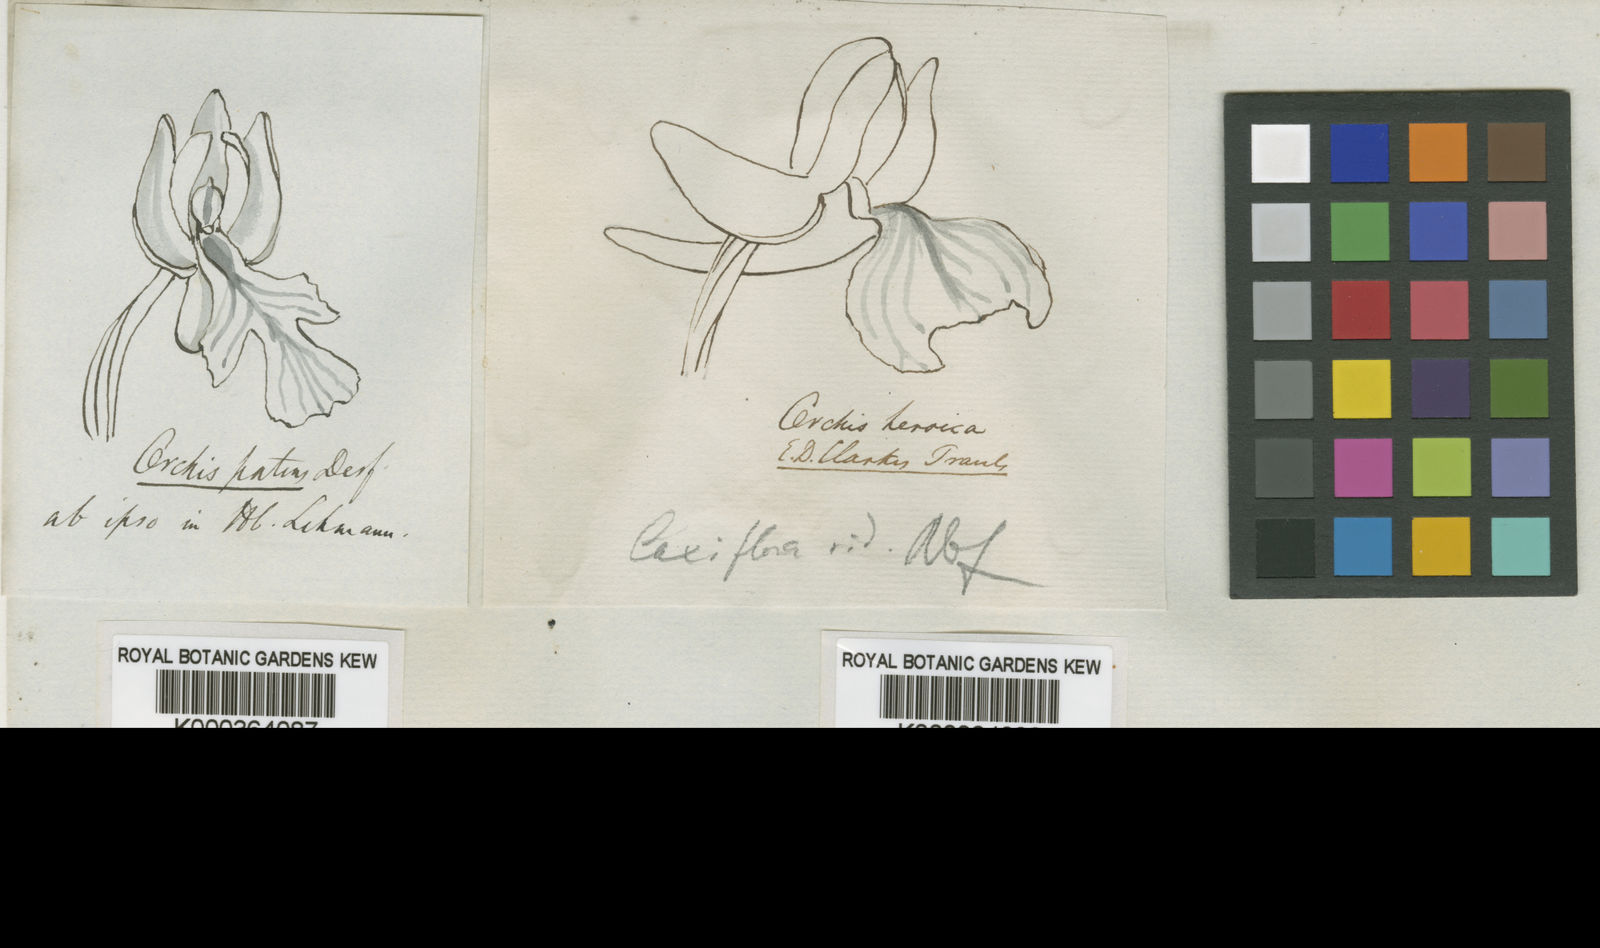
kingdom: Plantae
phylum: Tracheophyta
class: Liliopsida
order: Asparagales
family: Orchidaceae
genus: Orchis
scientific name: Orchis patens
